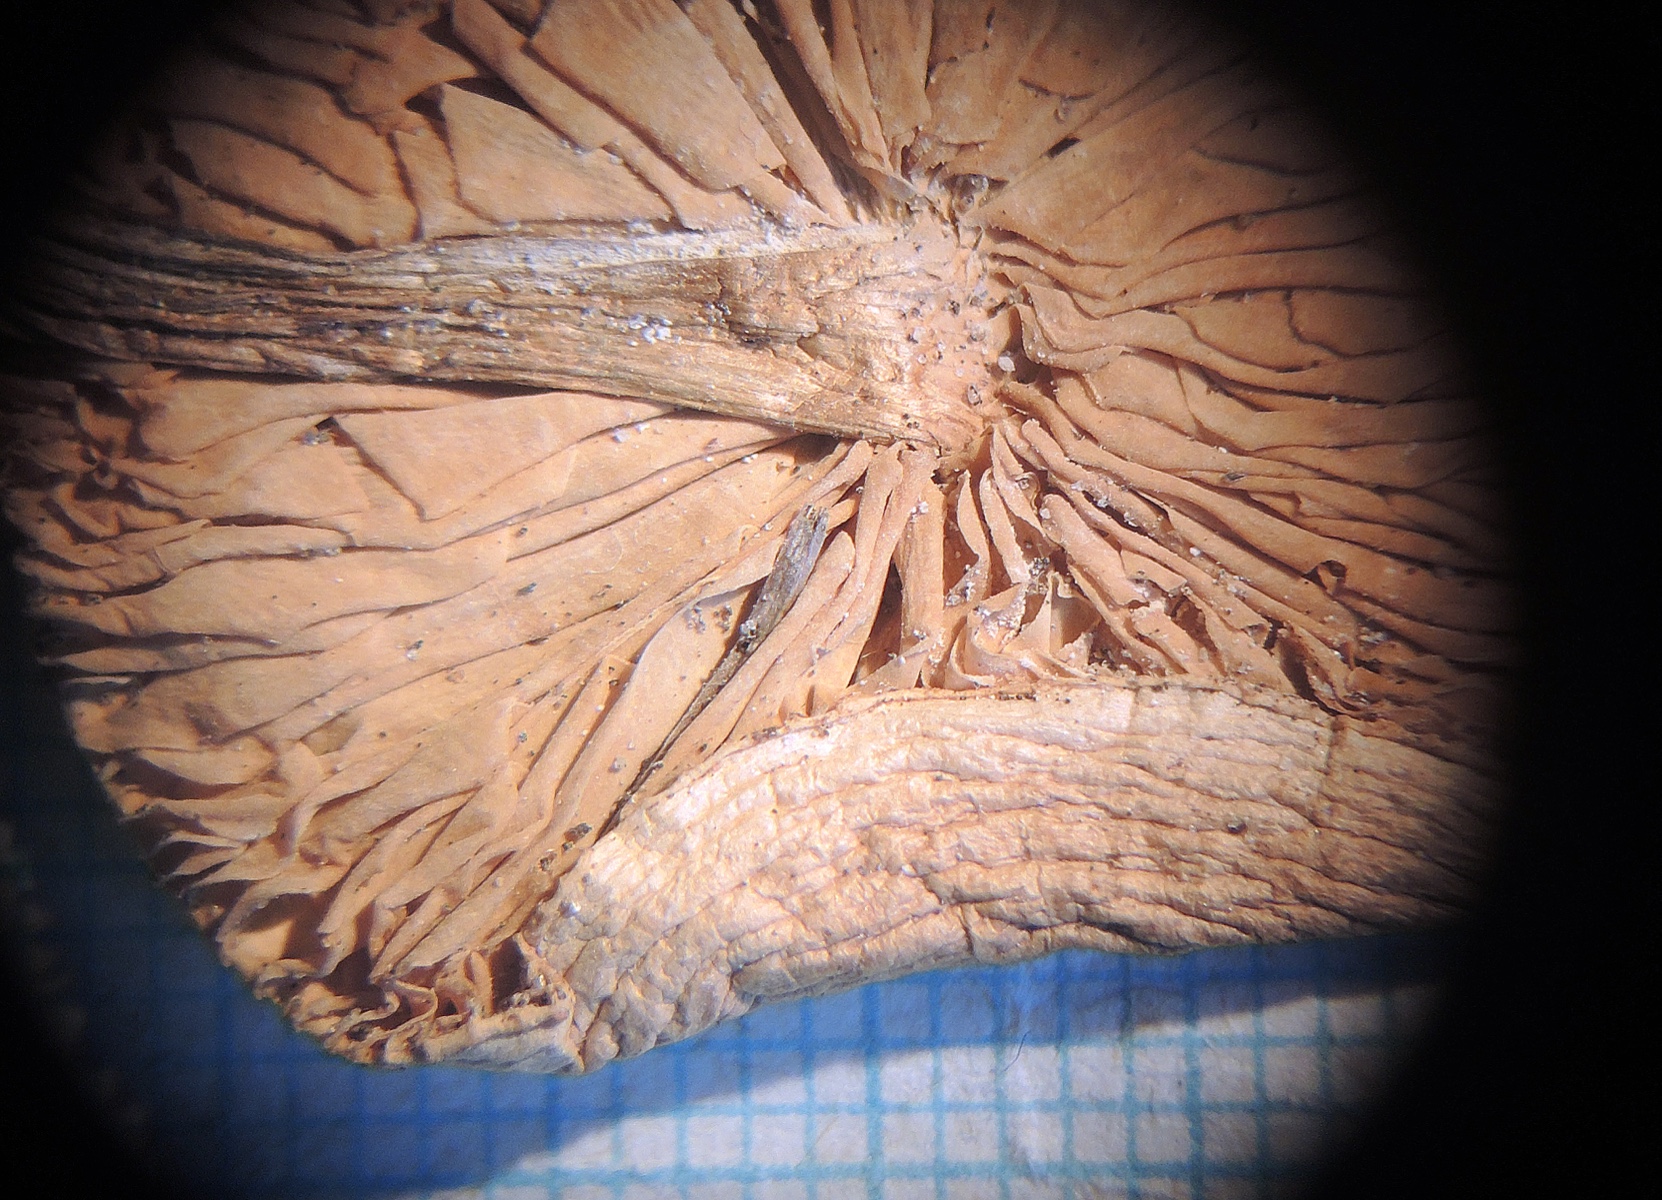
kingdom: Fungi
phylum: Basidiomycota
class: Agaricomycetes
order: Agaricales
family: Tricholomataceae
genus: Melanoleuca
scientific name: Melanoleuca stepposa
